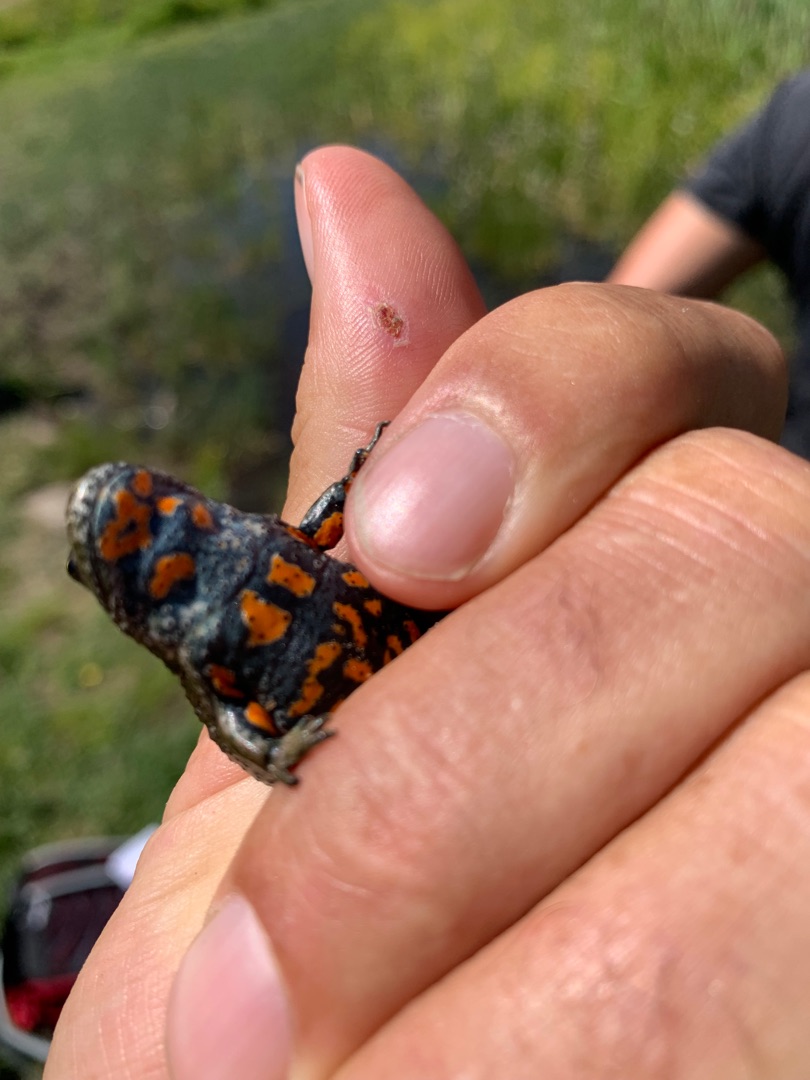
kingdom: Animalia
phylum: Chordata
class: Amphibia
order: Anura
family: Bombinatoridae
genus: Bombina
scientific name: Bombina bombina
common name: Klokkefrø
